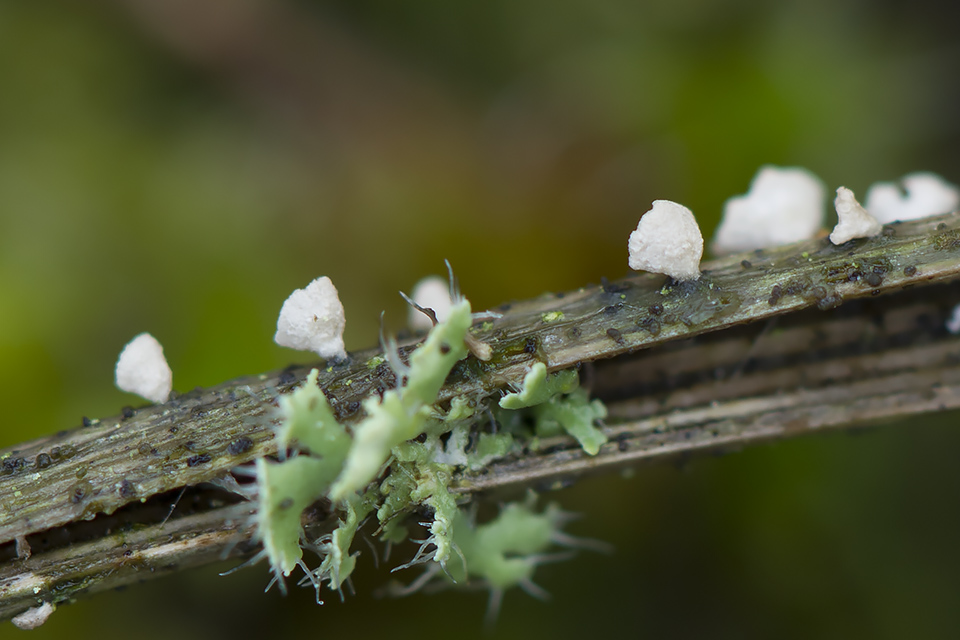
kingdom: Fungi
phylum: Basidiomycota
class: Agaricomycetes
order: Agaricales
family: Marasmiaceae
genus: Calyptella
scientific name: Calyptella gibbosa
